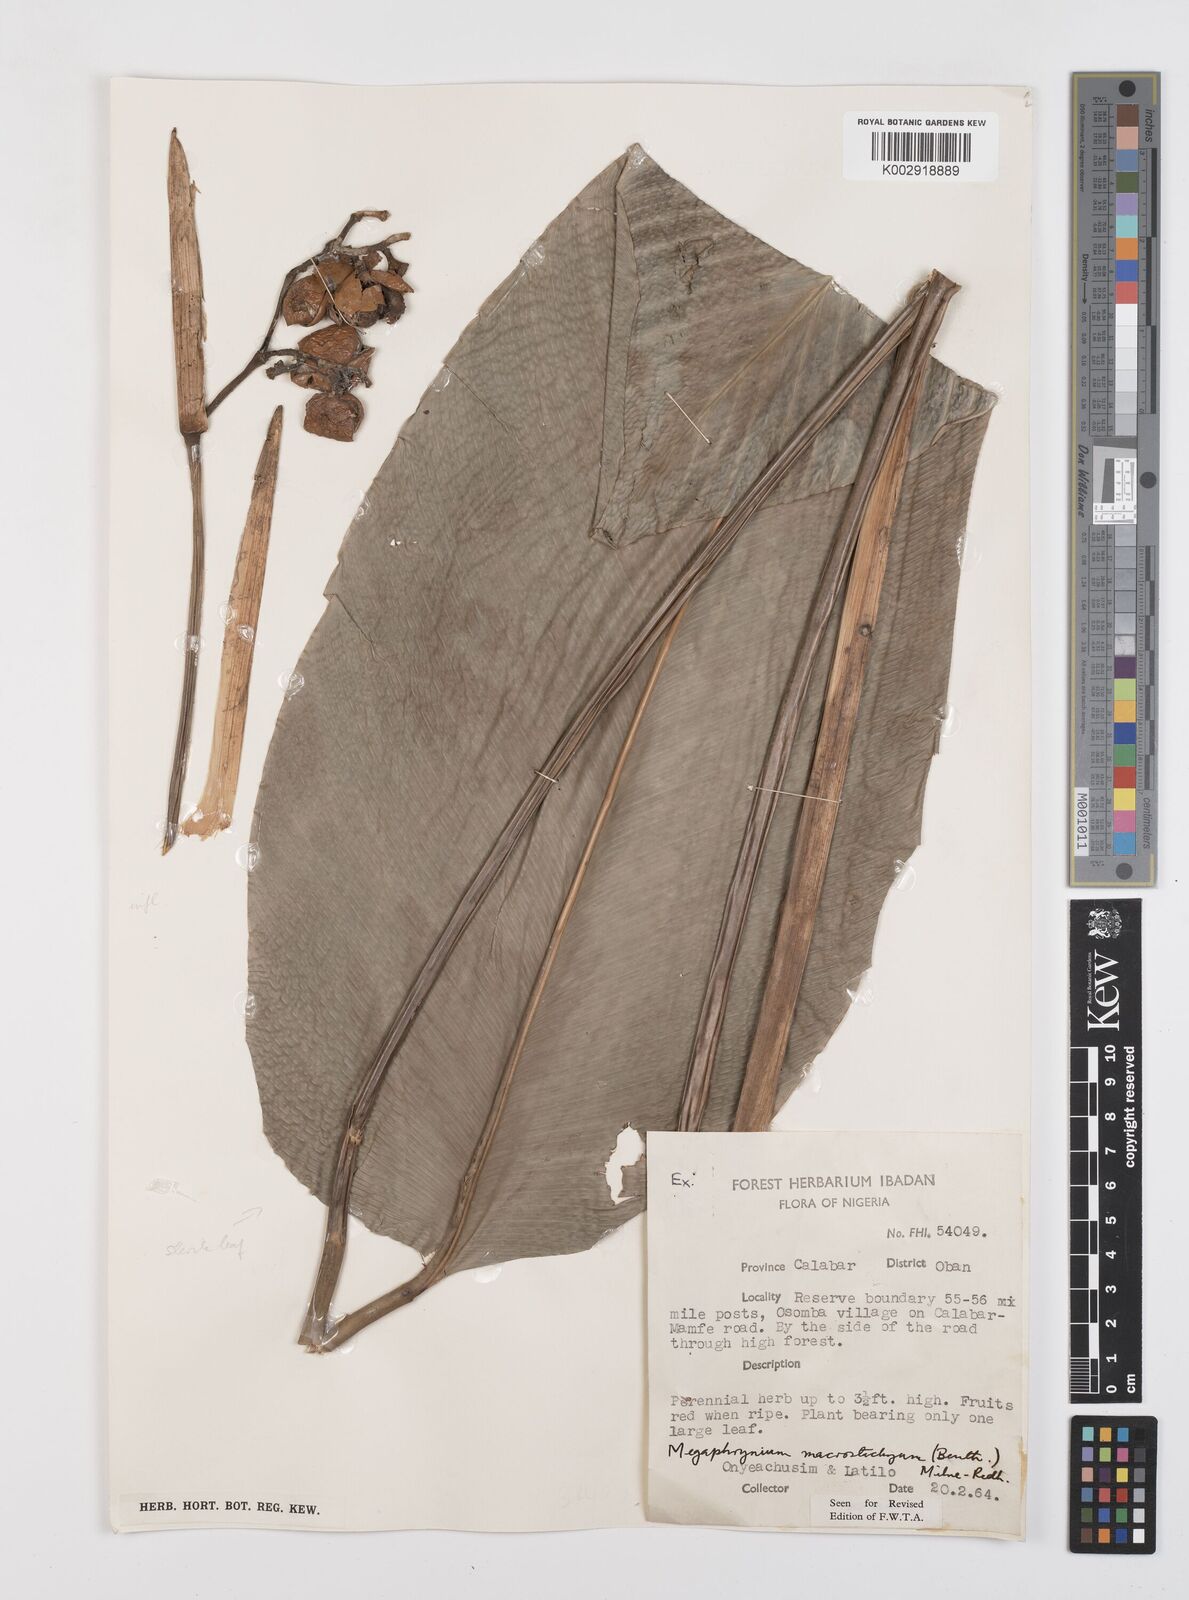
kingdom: Plantae
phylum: Tracheophyta
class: Liliopsida
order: Zingiberales
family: Marantaceae
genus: Megaphrynium
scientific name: Megaphrynium macrostachyum
